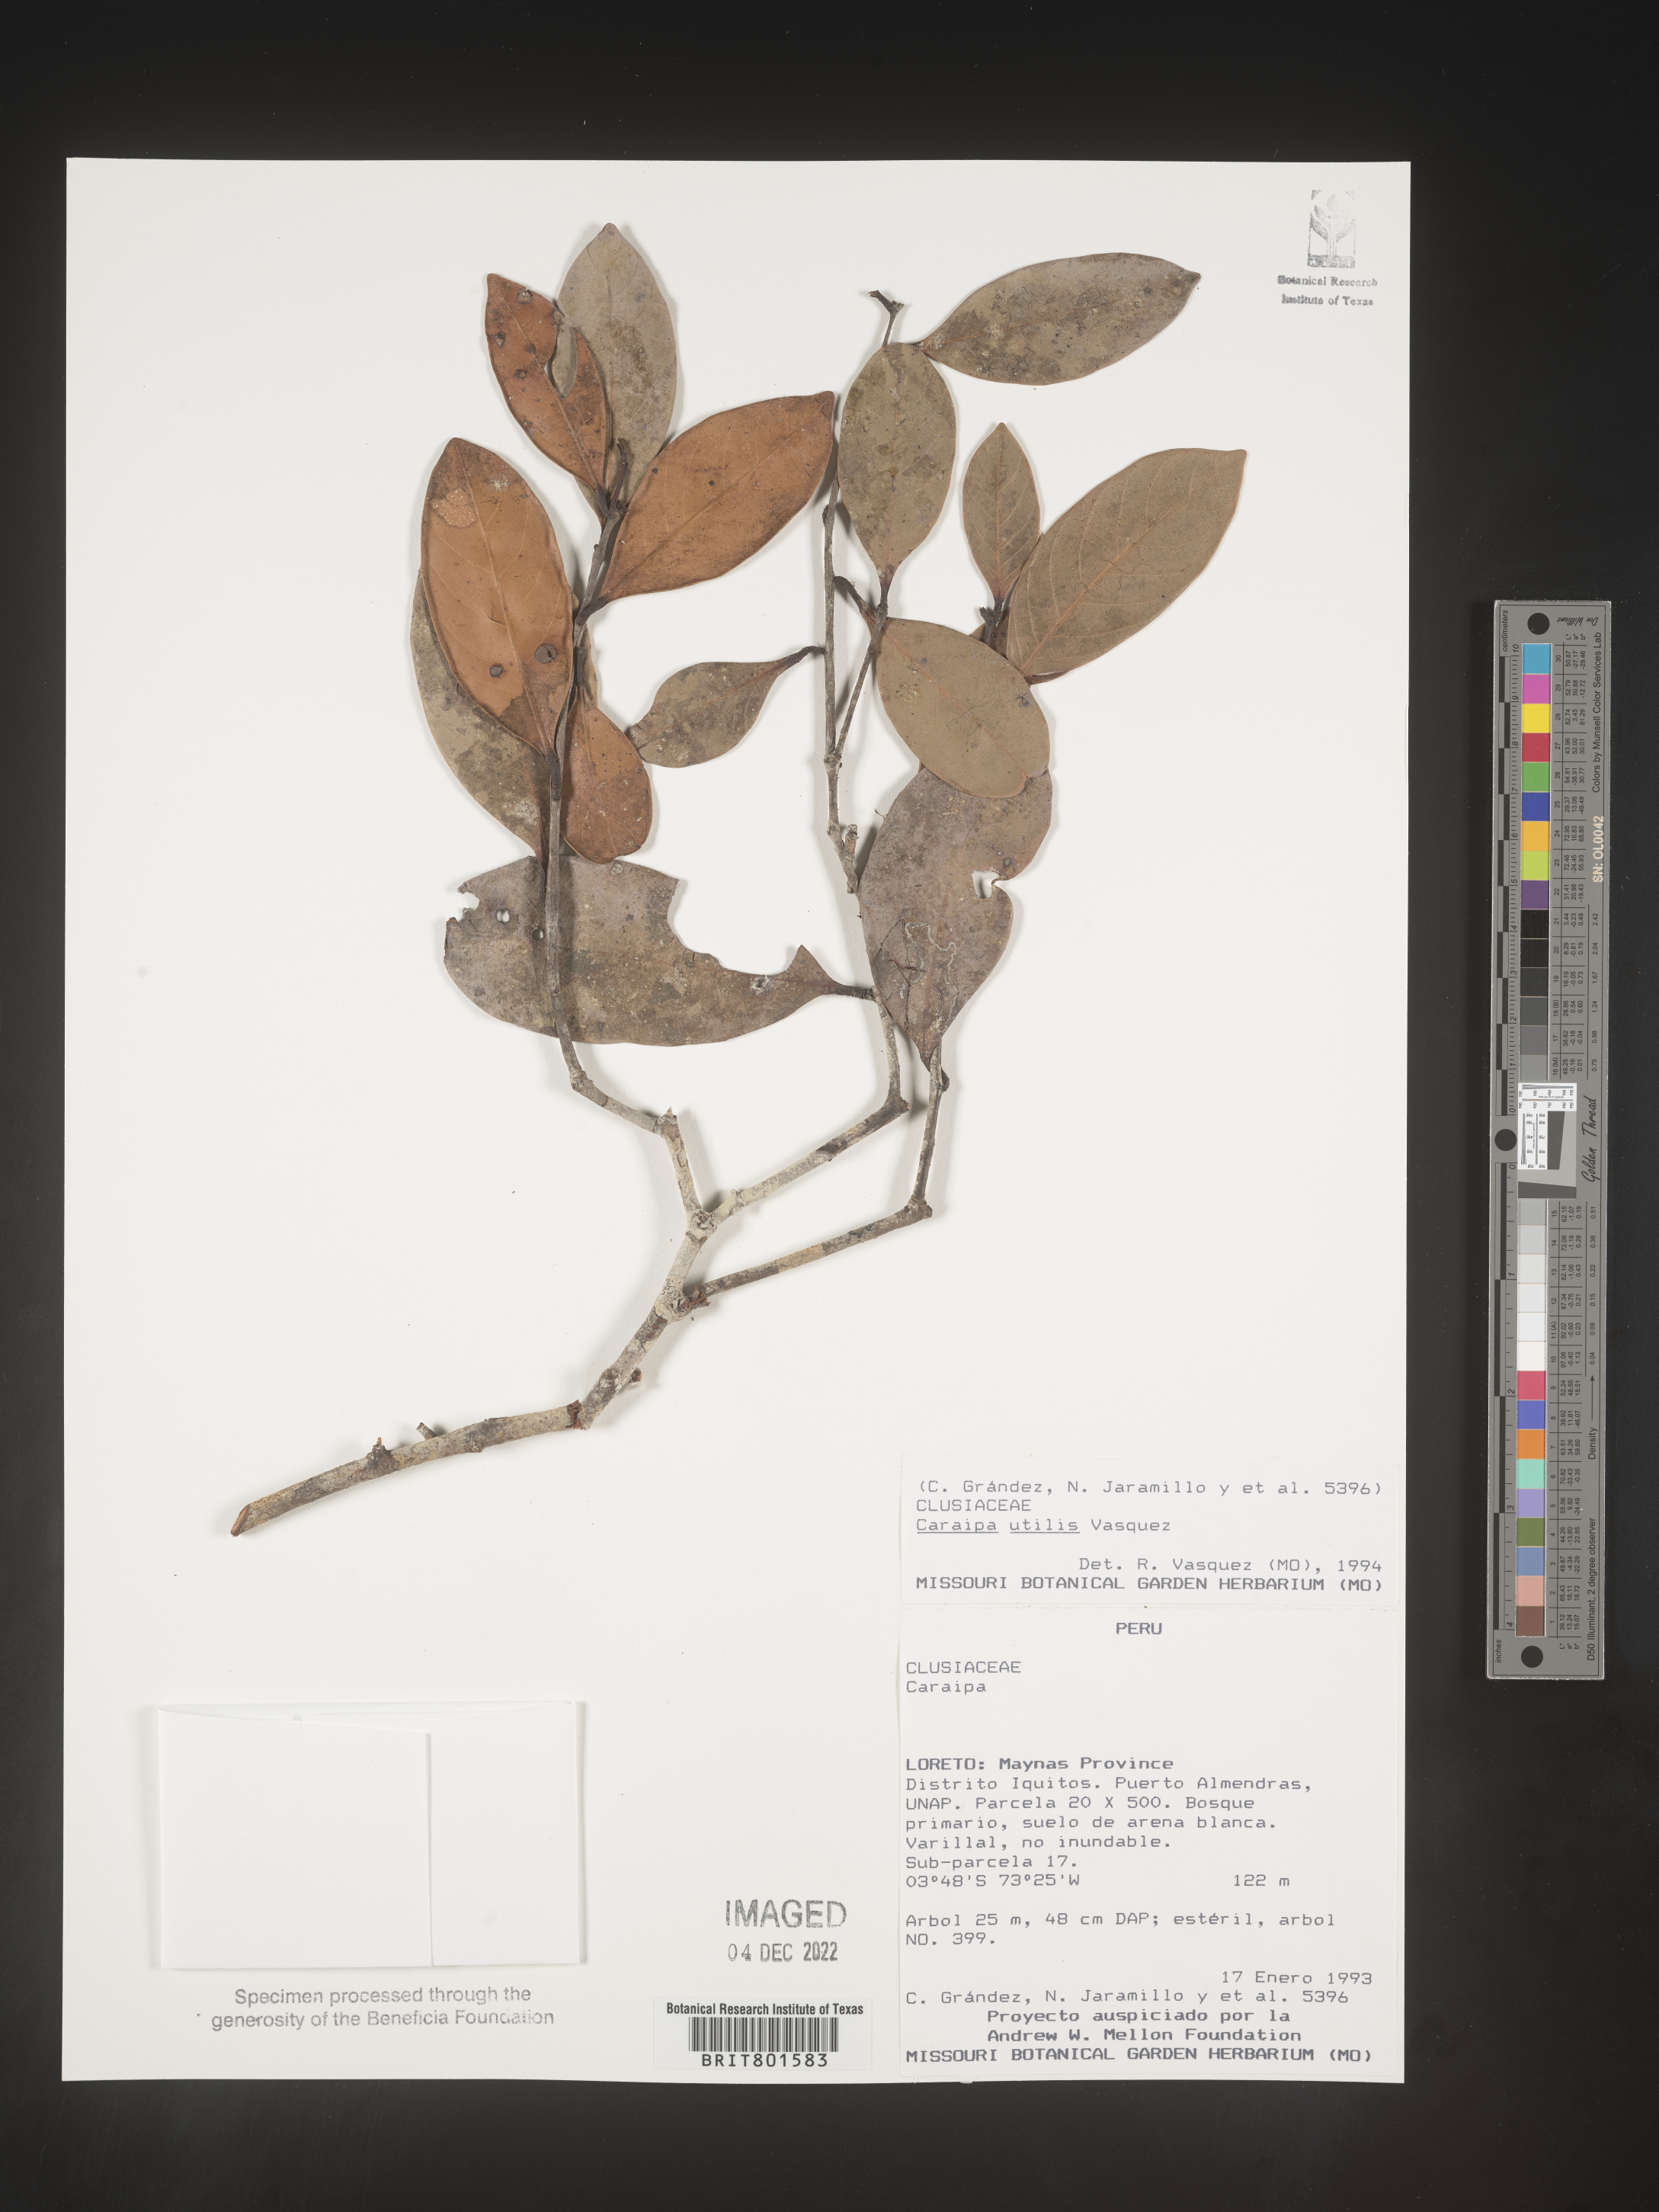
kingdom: Plantae
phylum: Tracheophyta
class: Magnoliopsida
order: Malpighiales
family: Calophyllaceae
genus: Caraipa
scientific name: Caraipa utilis
